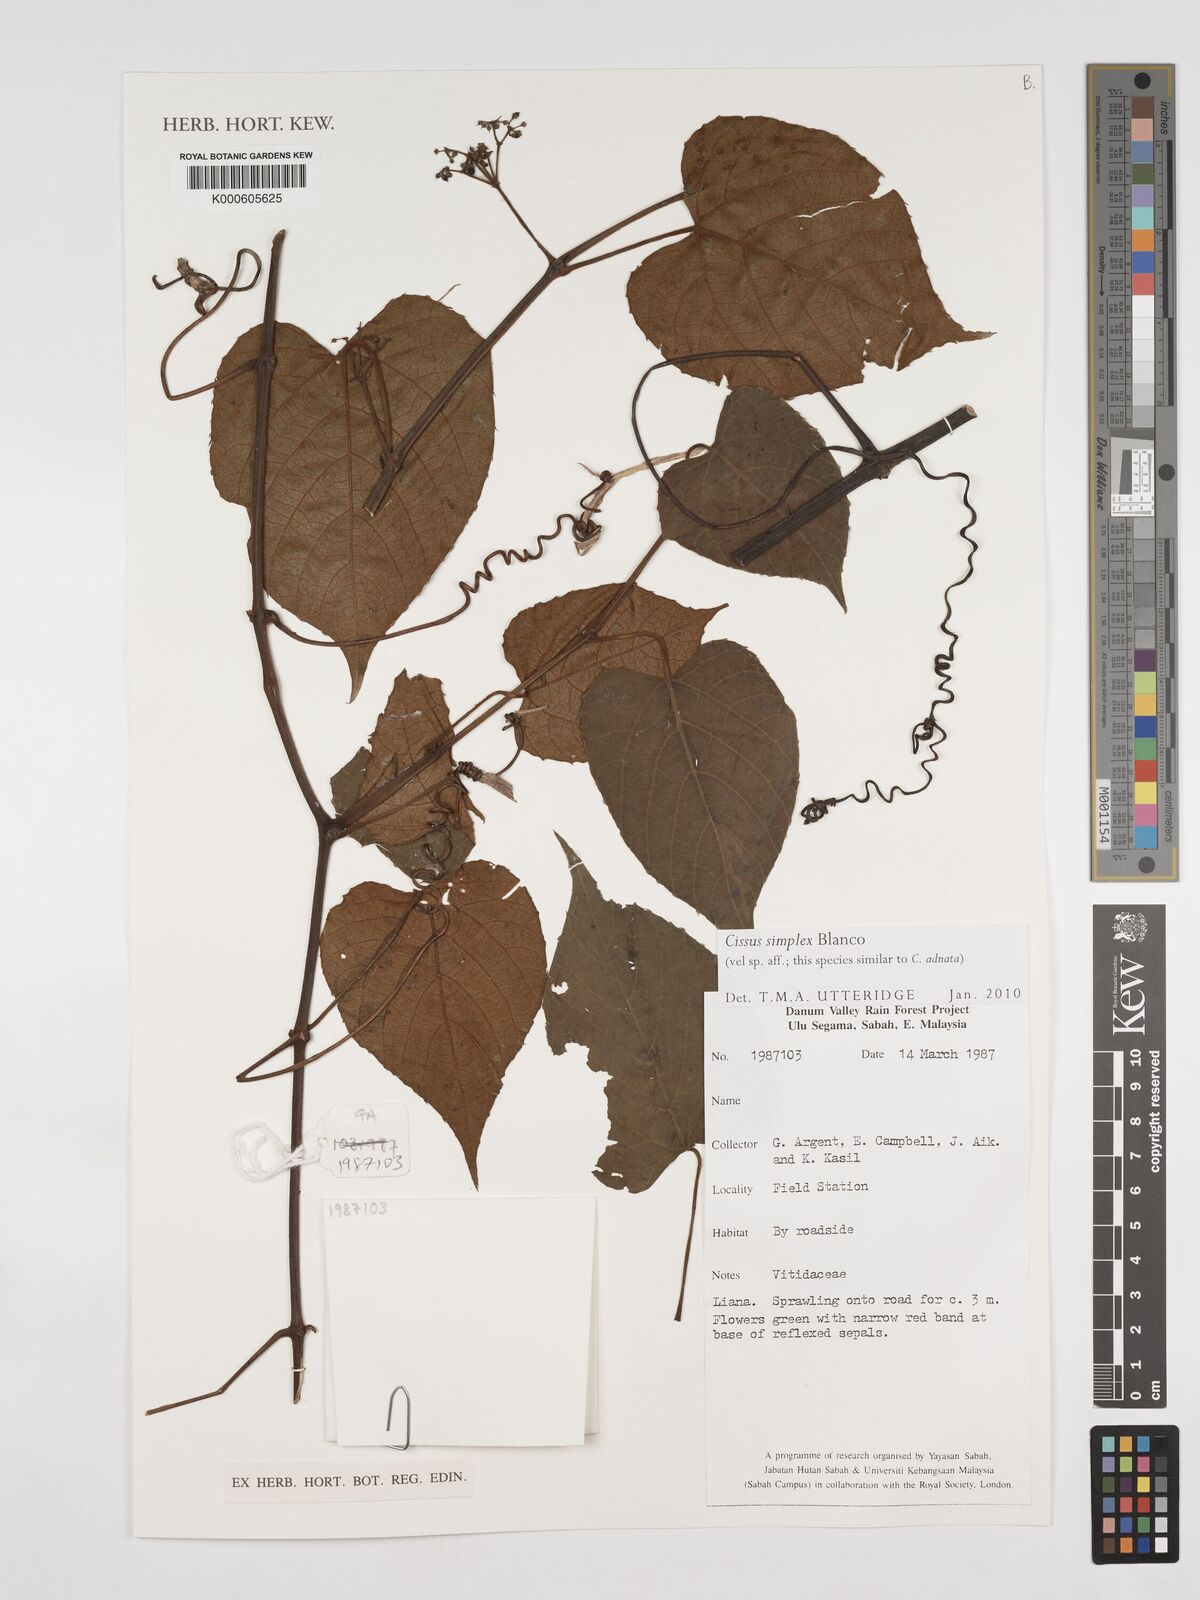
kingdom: Plantae
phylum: Tracheophyta
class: Magnoliopsida
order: Vitales
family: Vitaceae
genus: Cissus
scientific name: Cissus aristata
